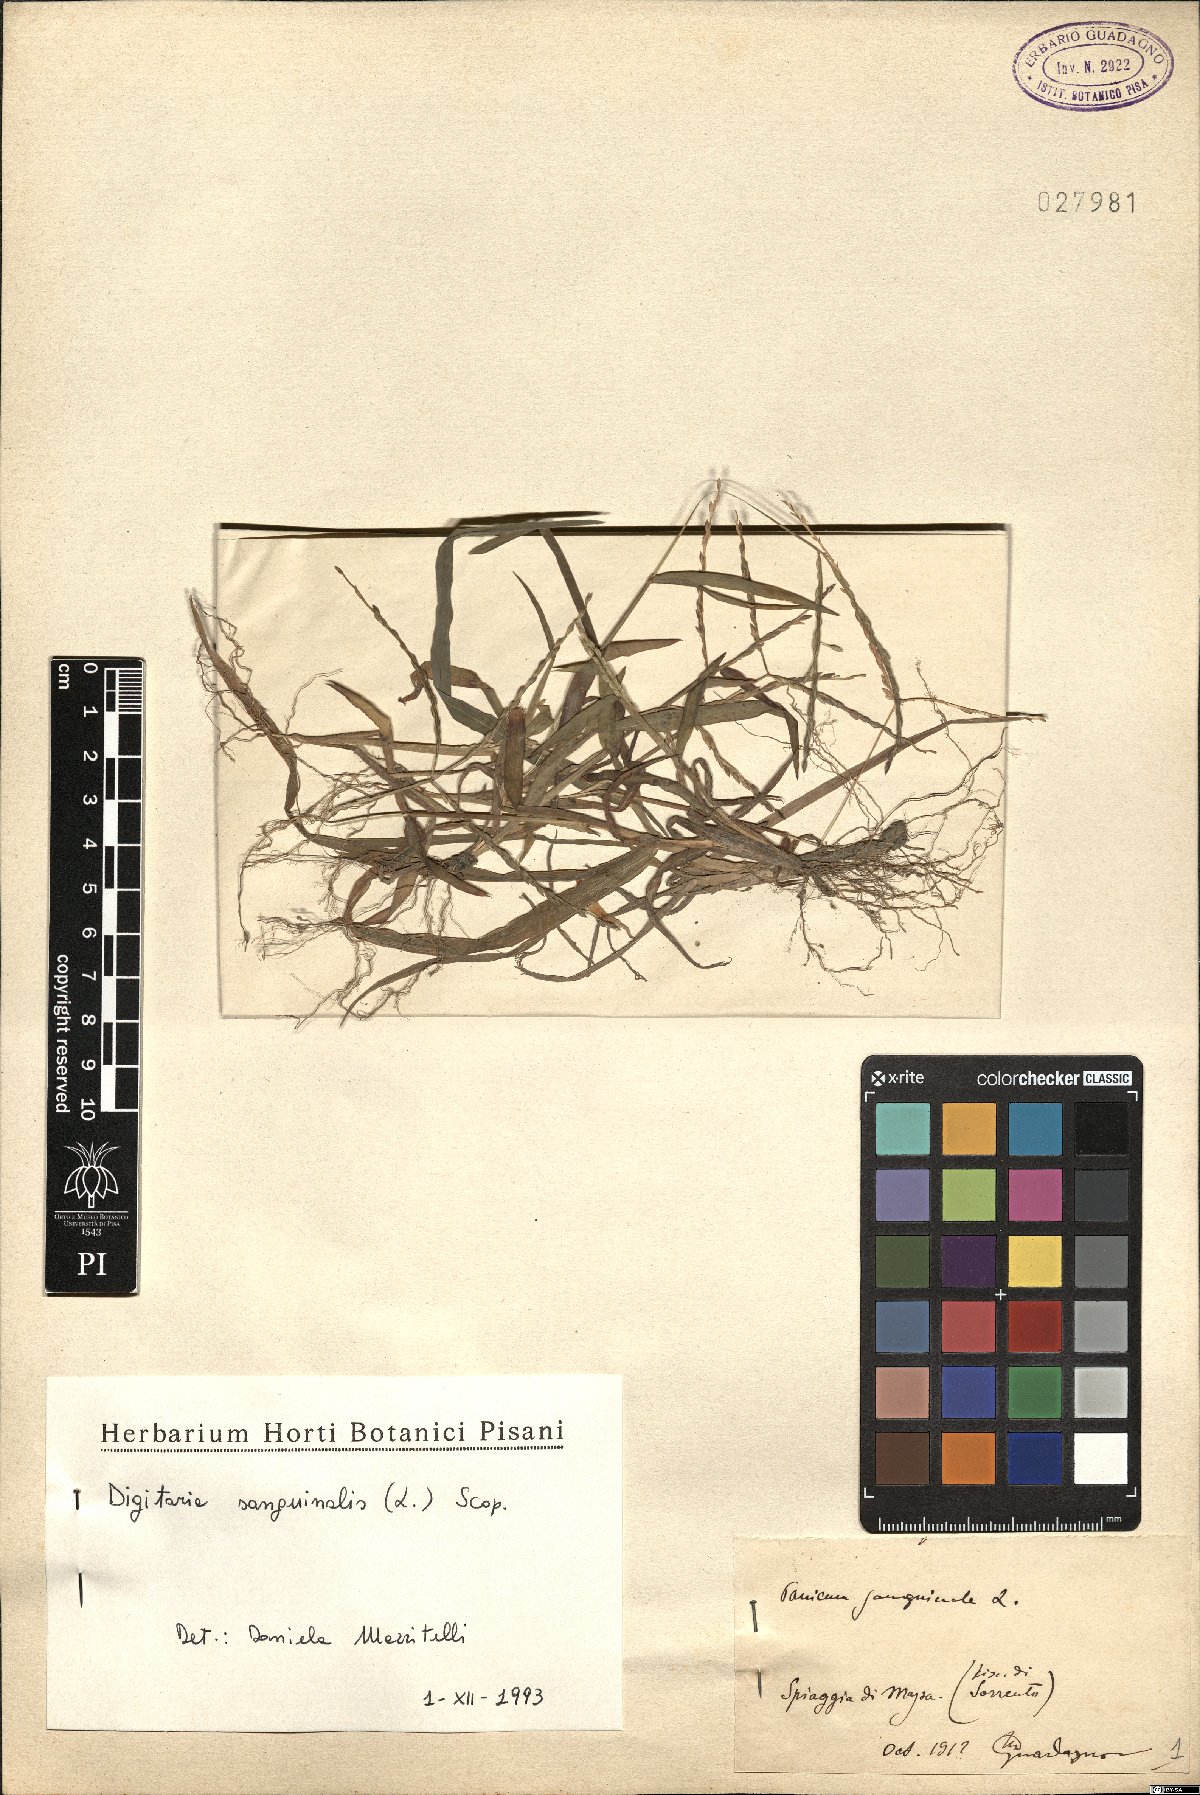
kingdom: Plantae
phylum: Tracheophyta
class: Liliopsida
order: Poales
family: Poaceae
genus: Digitaria
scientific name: Digitaria sanguinalis
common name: Hairy crabgrass
